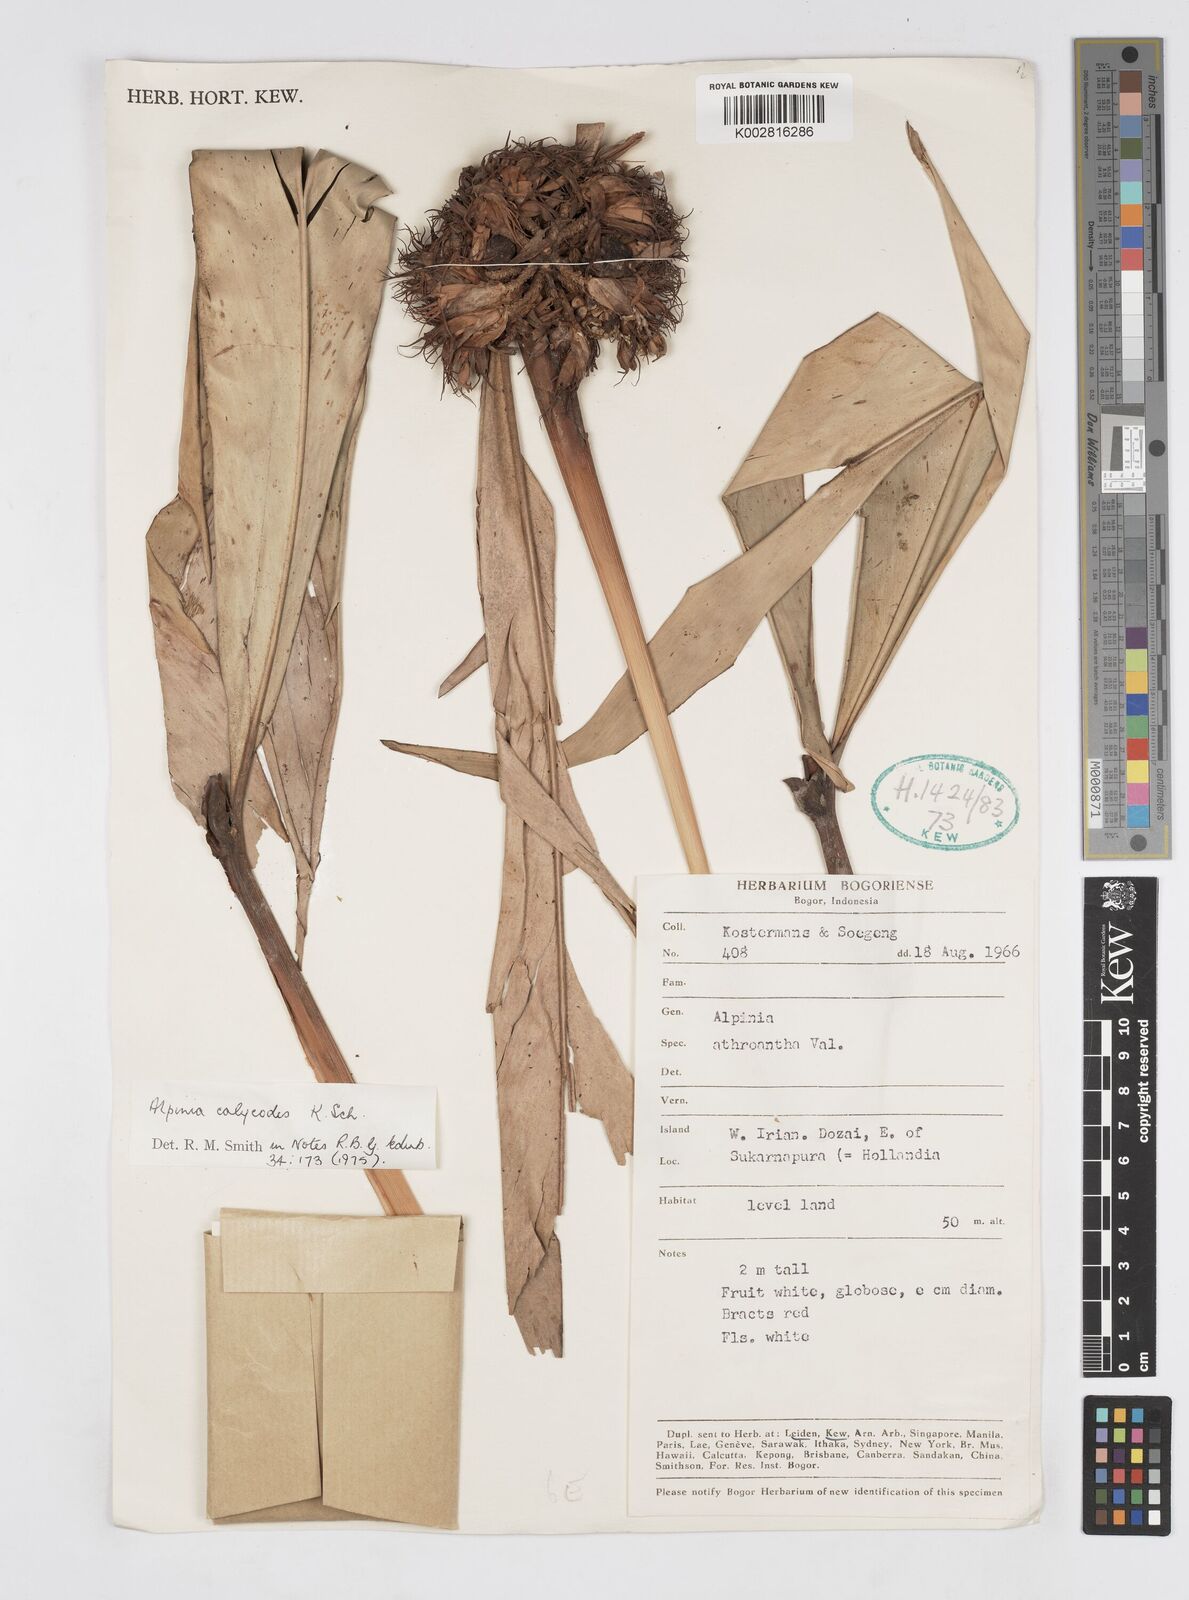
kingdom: Plantae
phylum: Tracheophyta
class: Liliopsida
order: Zingiberales
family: Zingiberaceae
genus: Alpinia
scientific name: Alpinia calycodes
